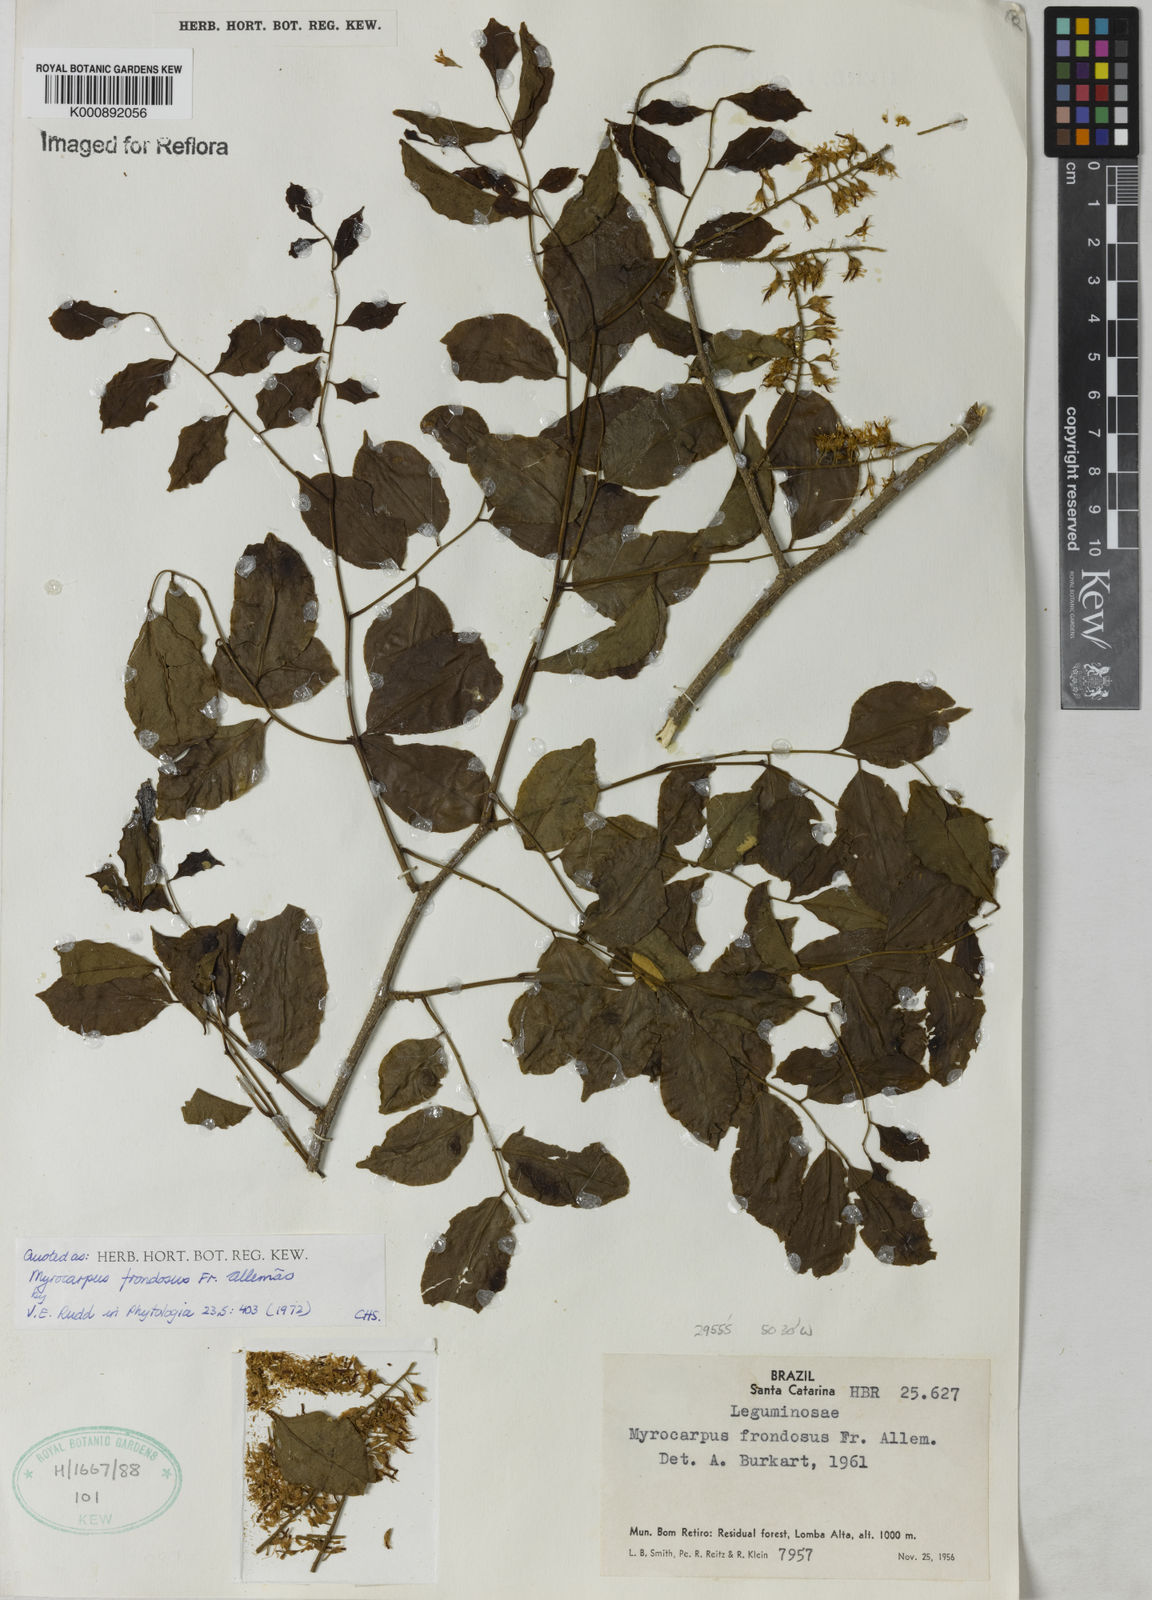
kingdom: Plantae
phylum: Tracheophyta
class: Magnoliopsida
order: Fabales
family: Fabaceae
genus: Myrocarpus
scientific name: Myrocarpus
